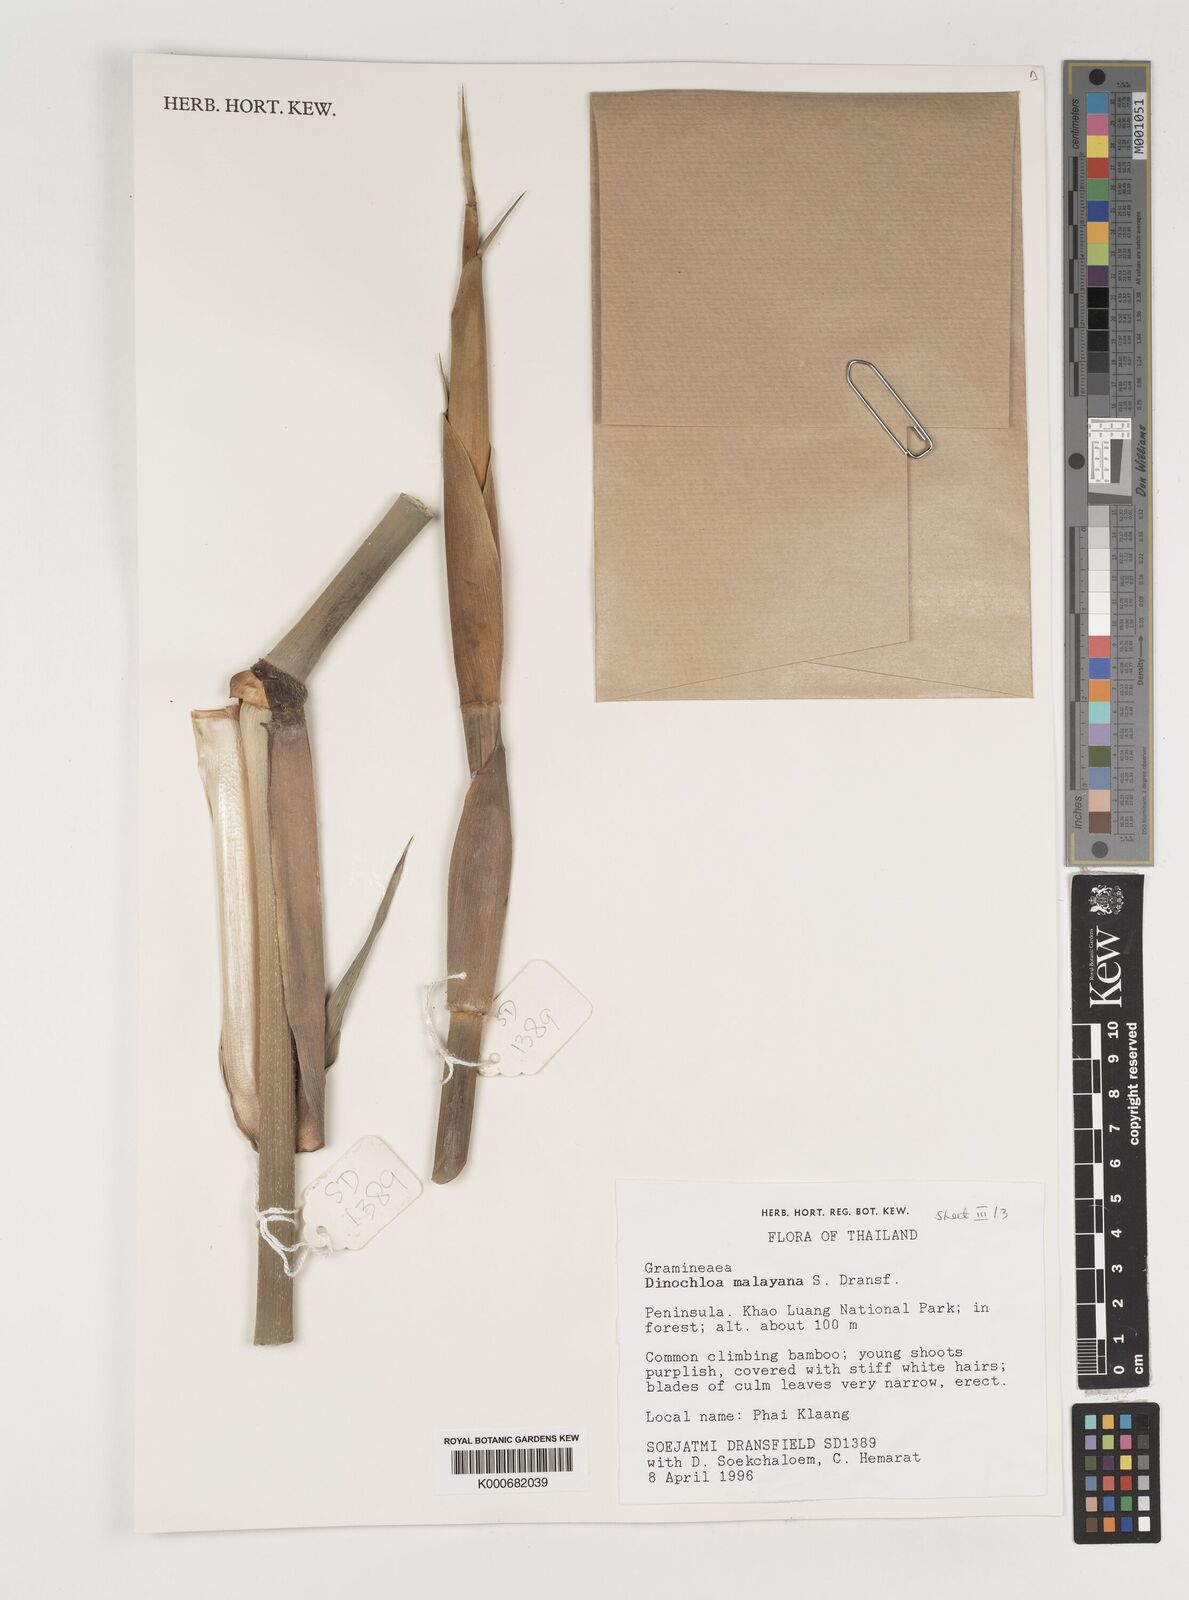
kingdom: Plantae
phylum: Tracheophyta
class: Liliopsida
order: Poales
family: Poaceae
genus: Dinochloa
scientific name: Dinochloa malayana
